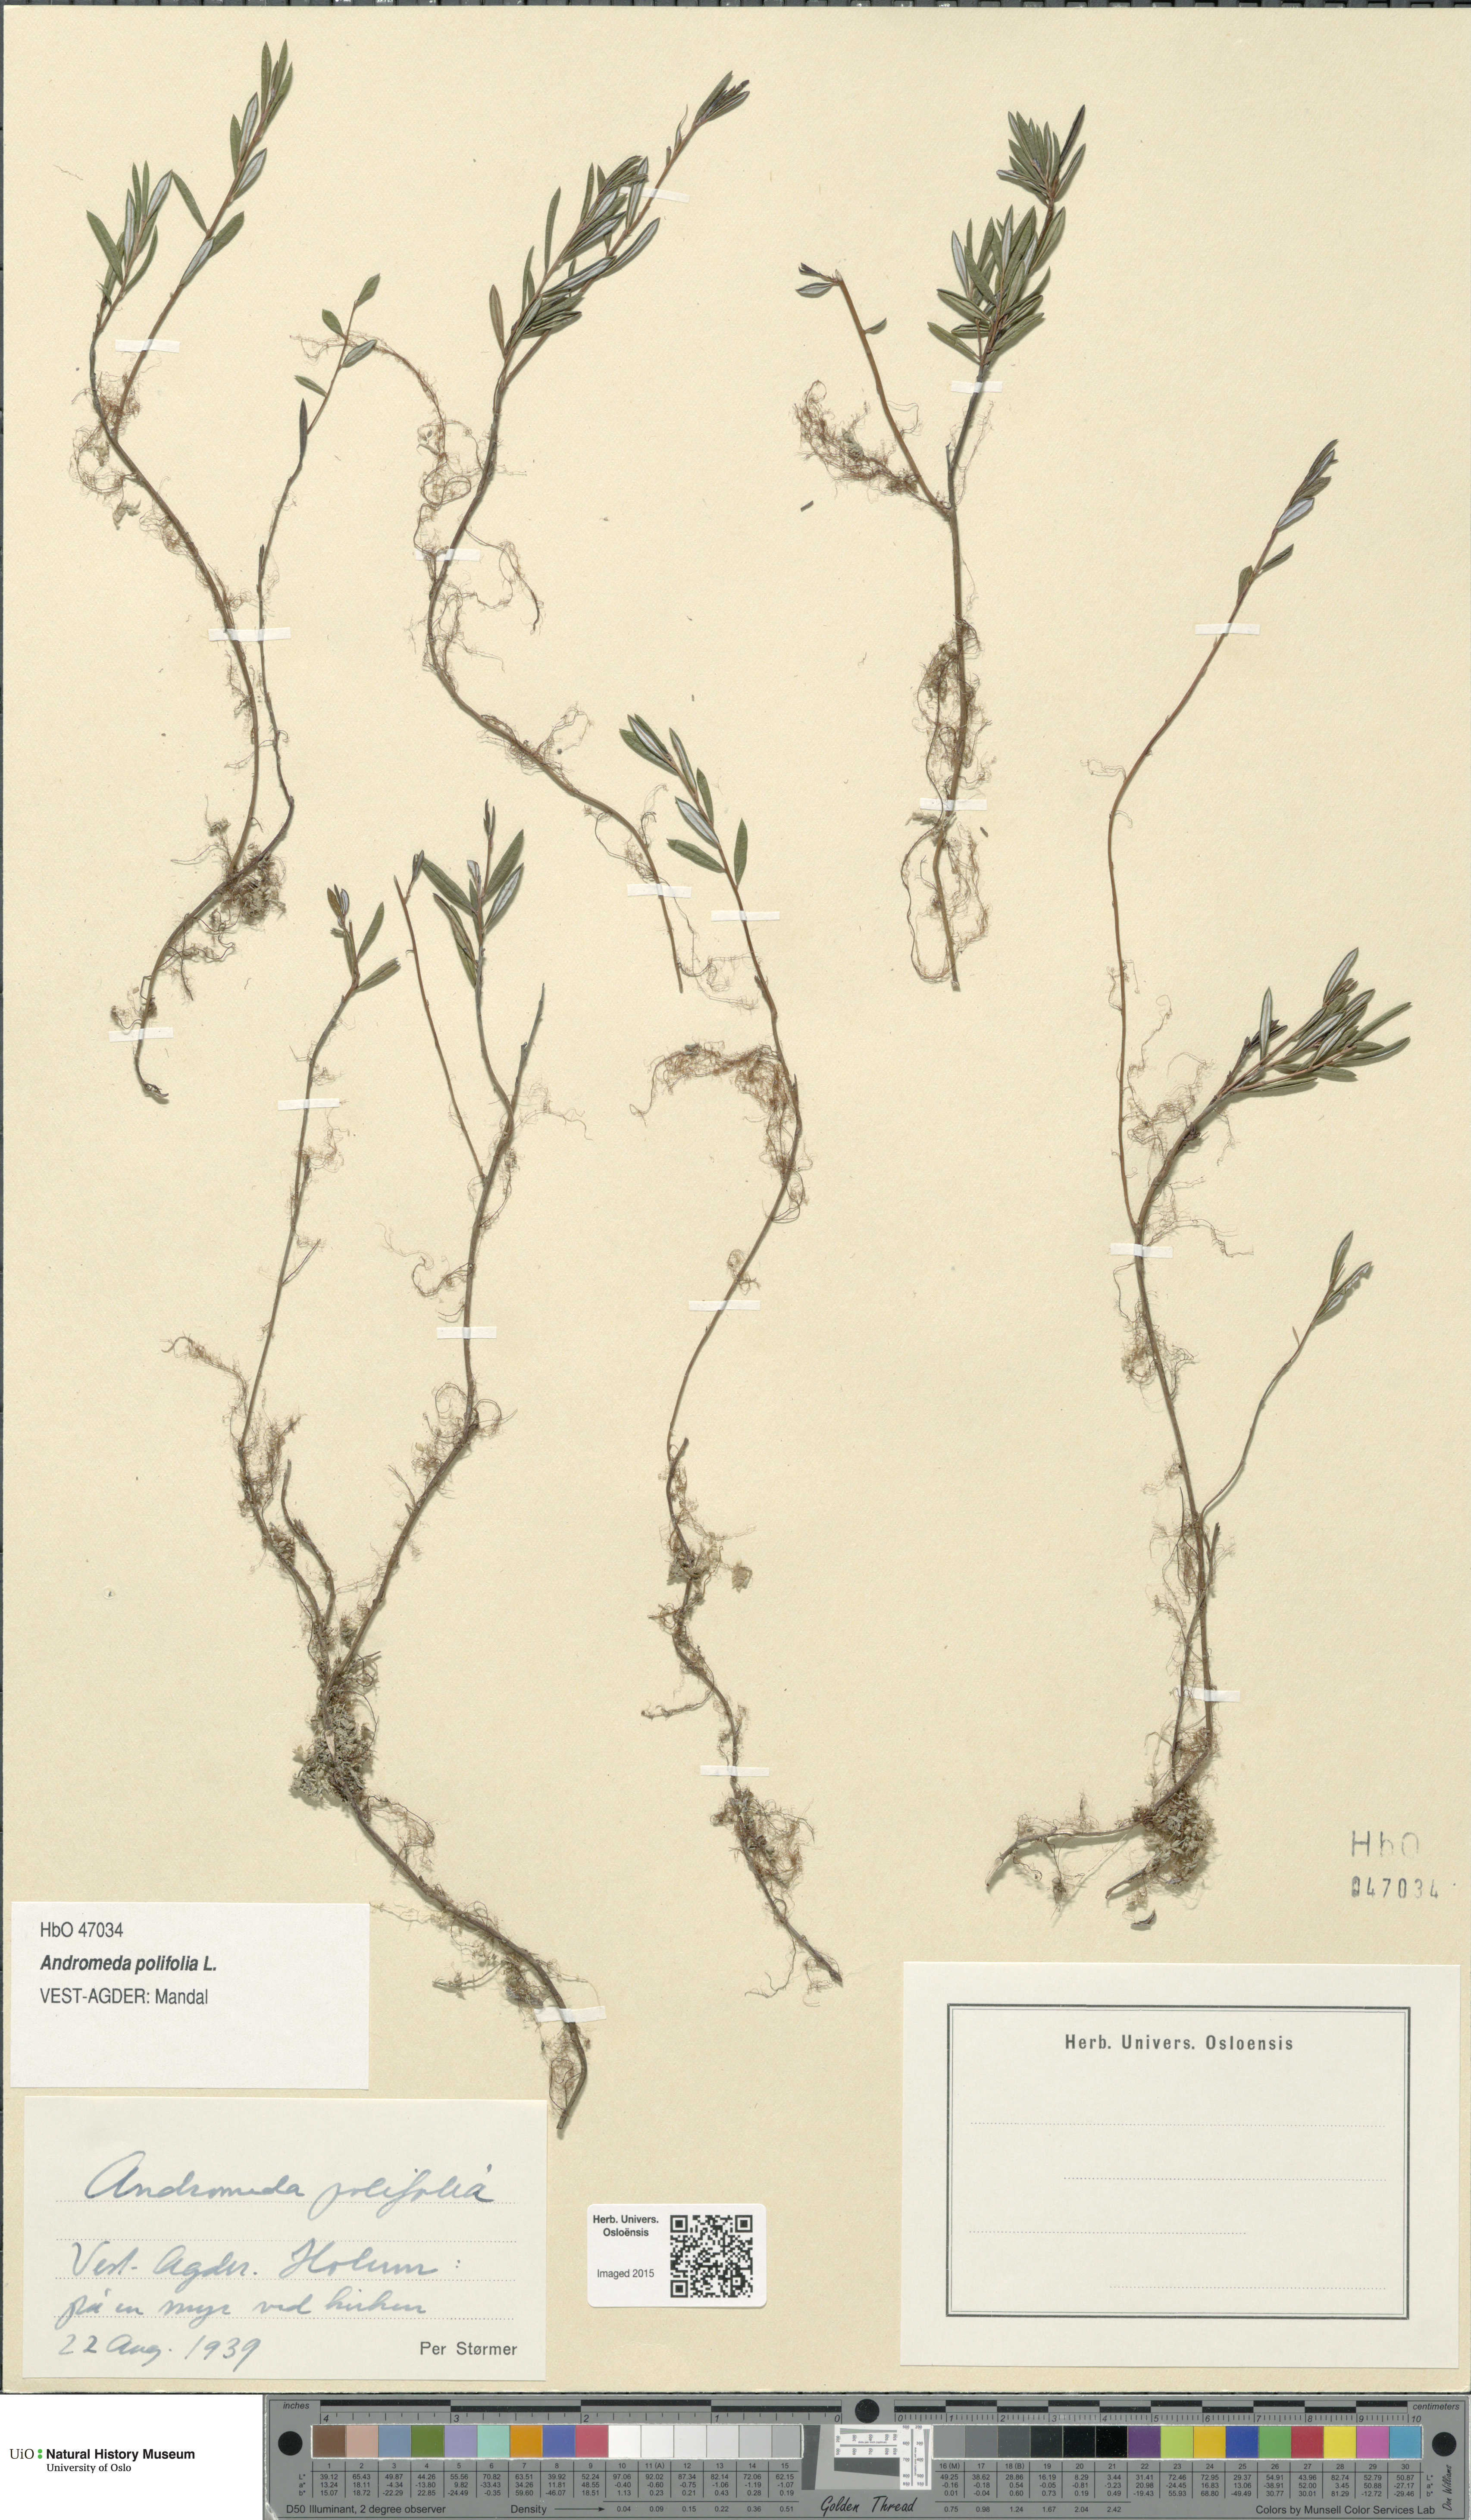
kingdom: Plantae
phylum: Tracheophyta
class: Magnoliopsida
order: Ericales
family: Ericaceae
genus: Andromeda
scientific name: Andromeda polifolia
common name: Bog-rosemary
